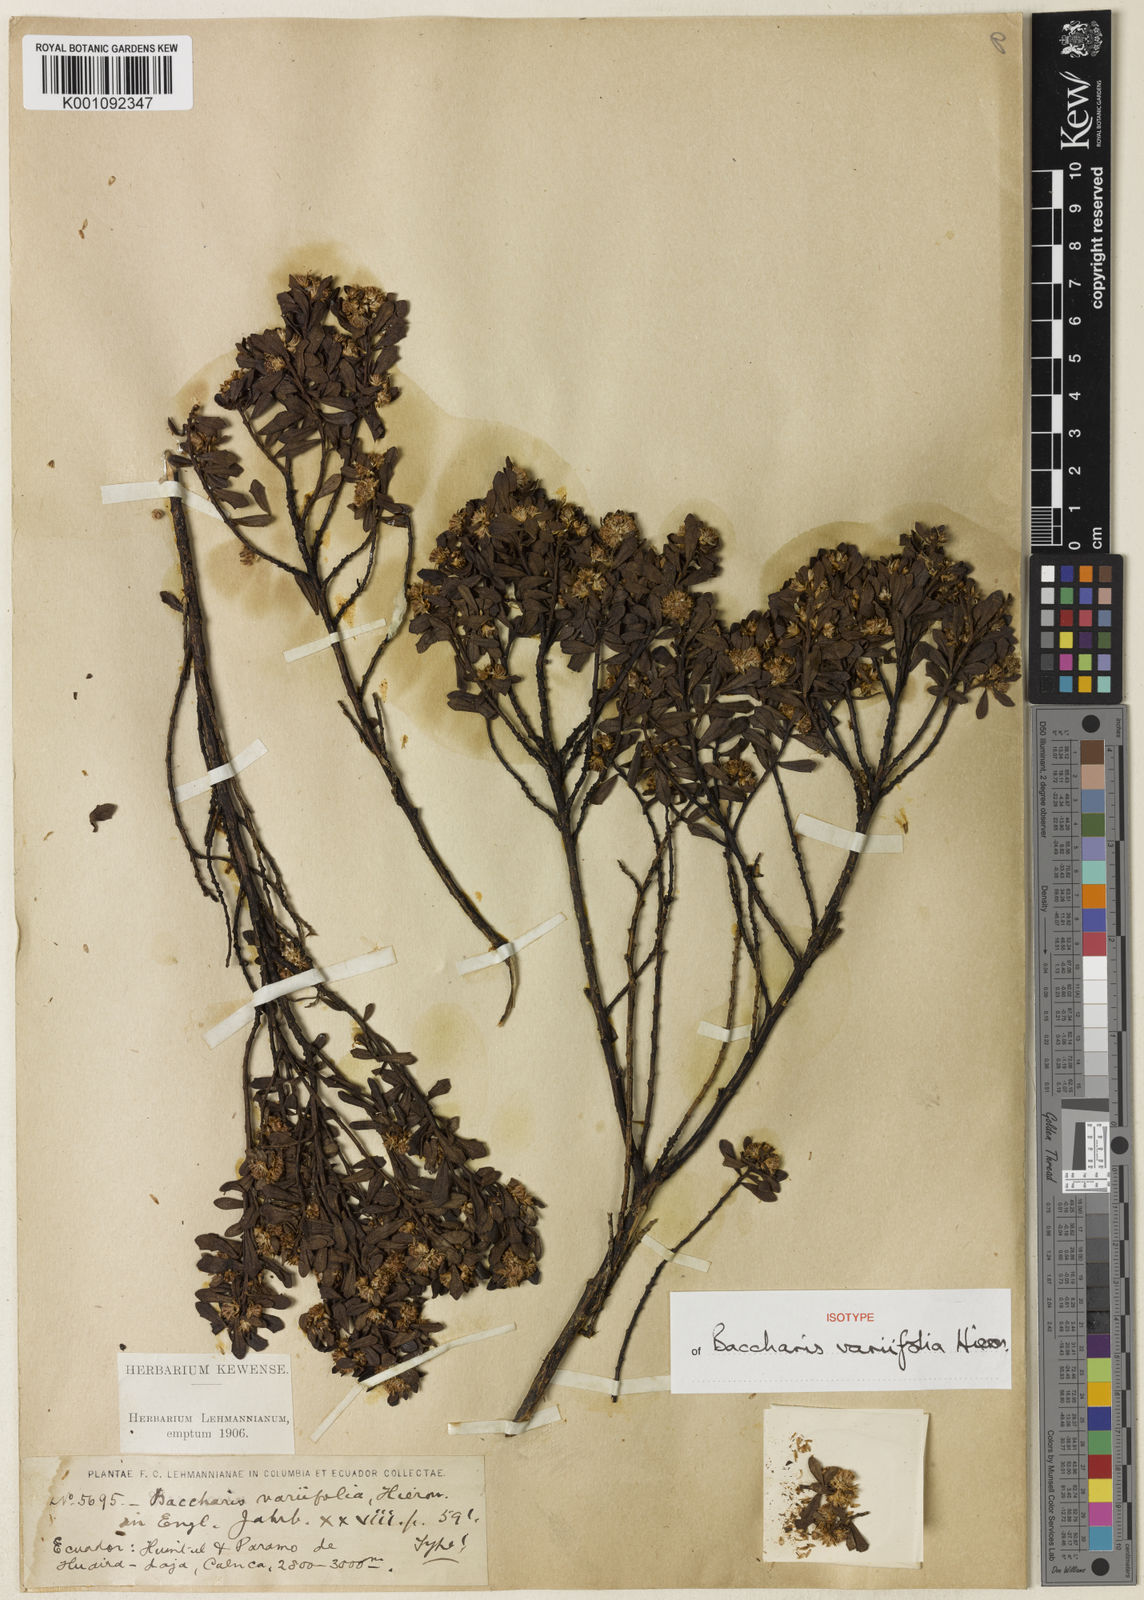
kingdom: Plantae
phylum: Tracheophyta
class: Magnoliopsida
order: Asterales
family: Asteraceae
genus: Baccharis
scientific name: Baccharis tricuneata
